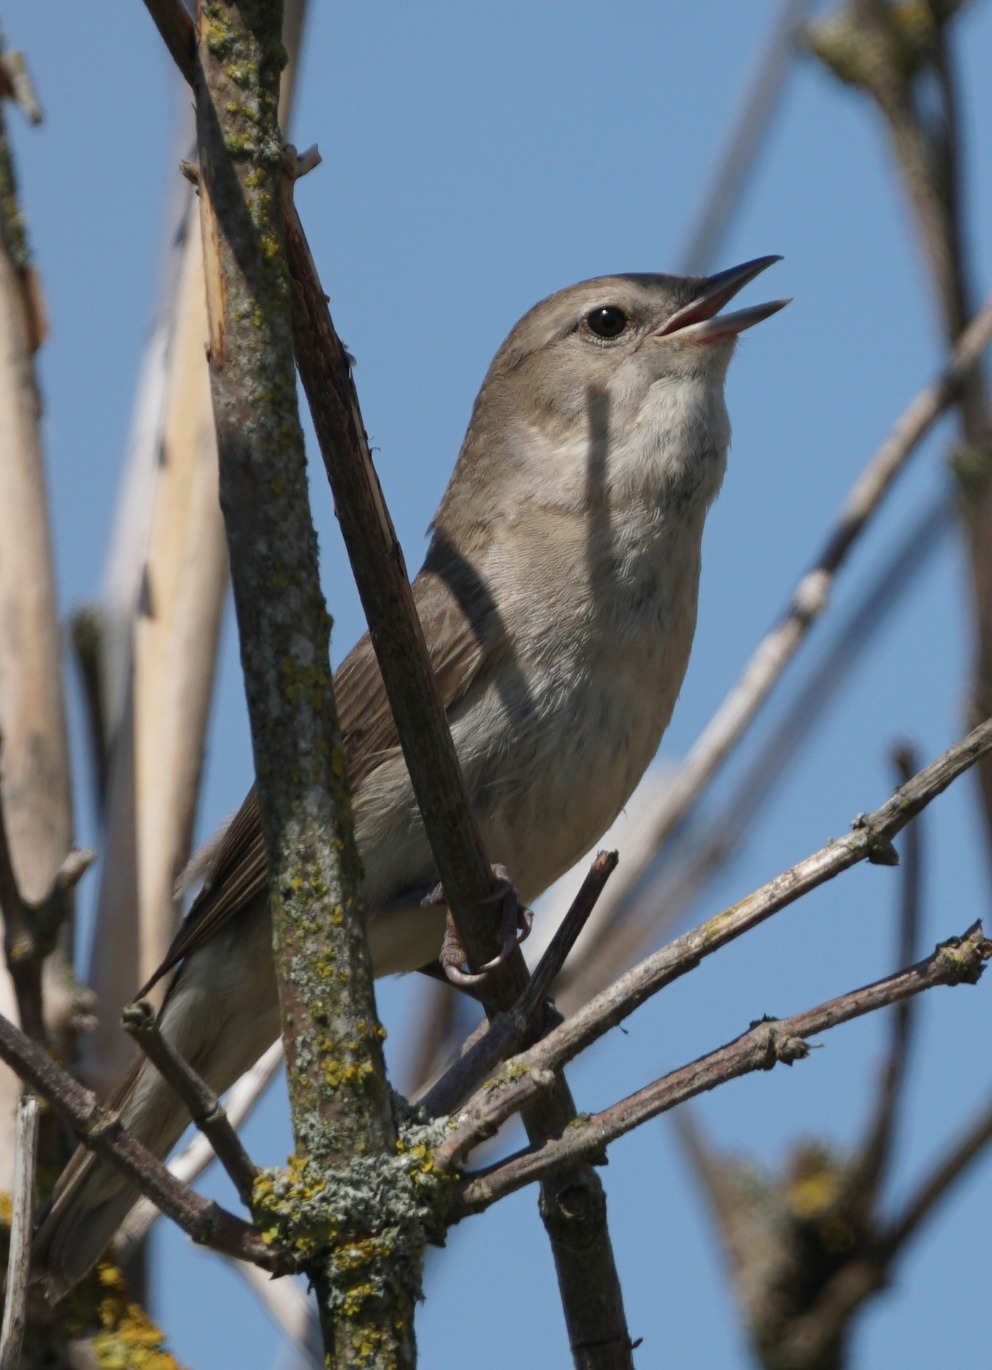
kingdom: Animalia
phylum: Chordata
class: Aves
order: Passeriformes
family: Sylviidae
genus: Sylvia
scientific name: Sylvia borin
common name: Havesanger
